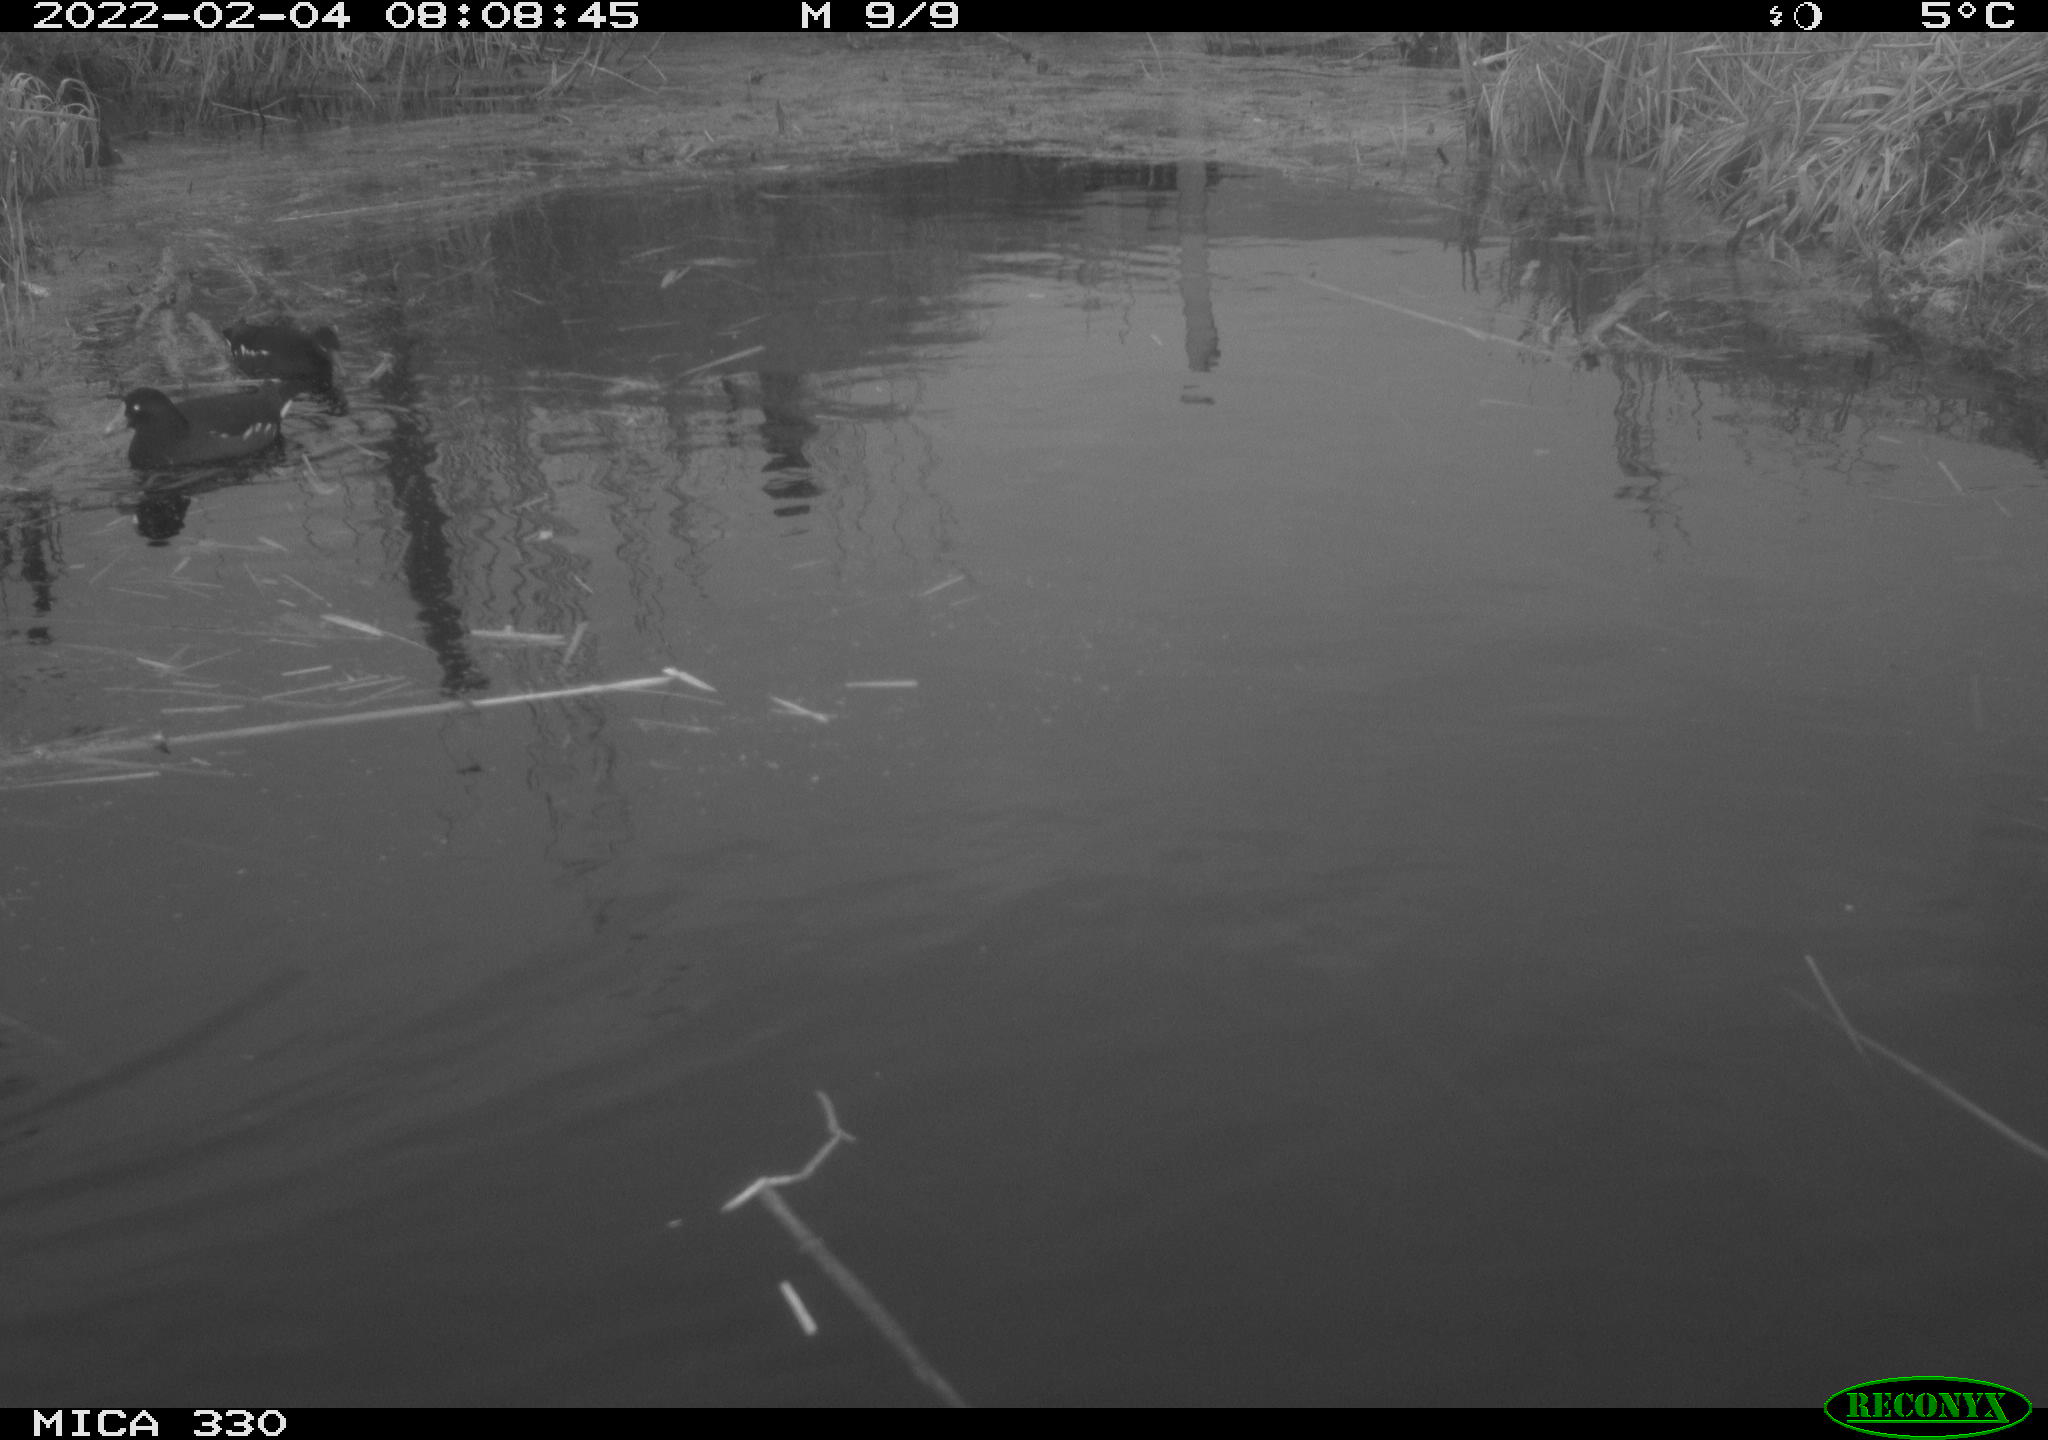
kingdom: Animalia
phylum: Chordata
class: Aves
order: Gruiformes
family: Rallidae
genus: Gallinula
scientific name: Gallinula chloropus
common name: Common moorhen
